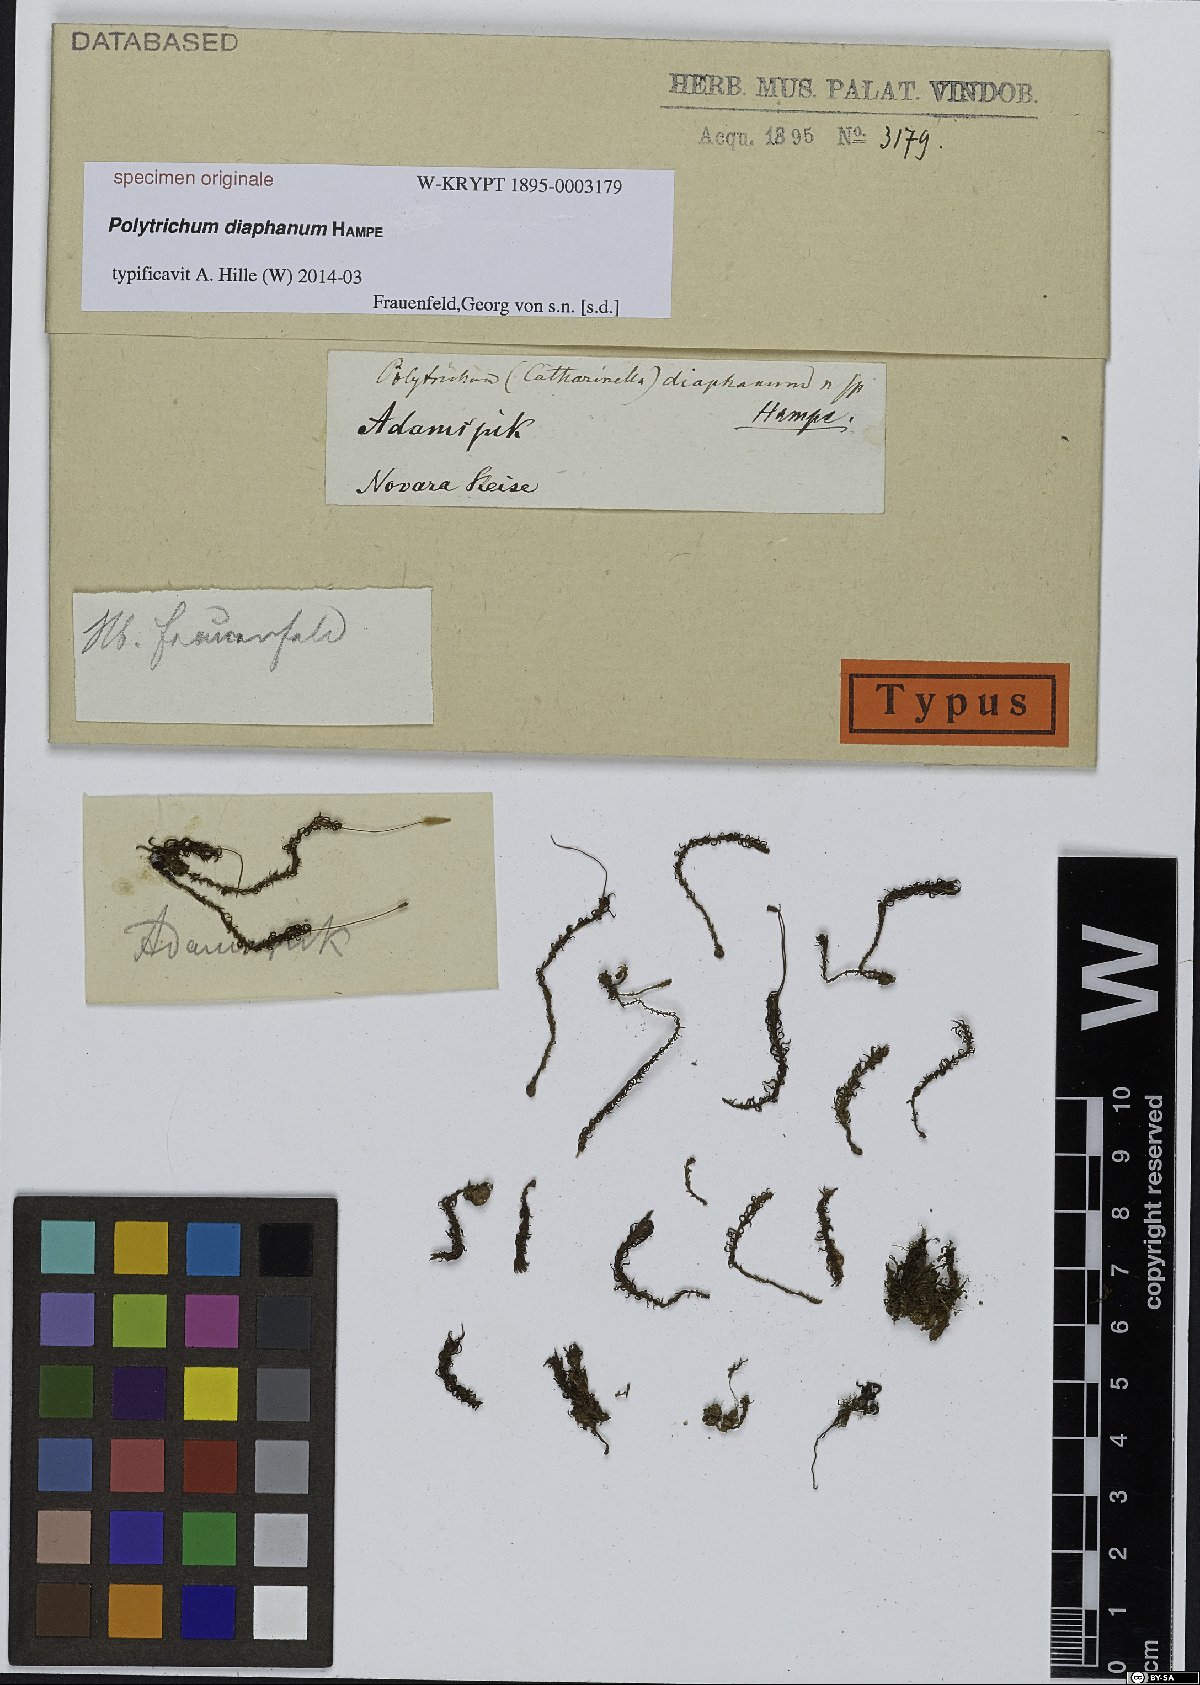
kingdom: Plantae
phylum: Bryophyta
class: Polytrichopsida
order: Polytrichales
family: Polytrichaceae
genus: Polytrichum
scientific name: Polytrichum
